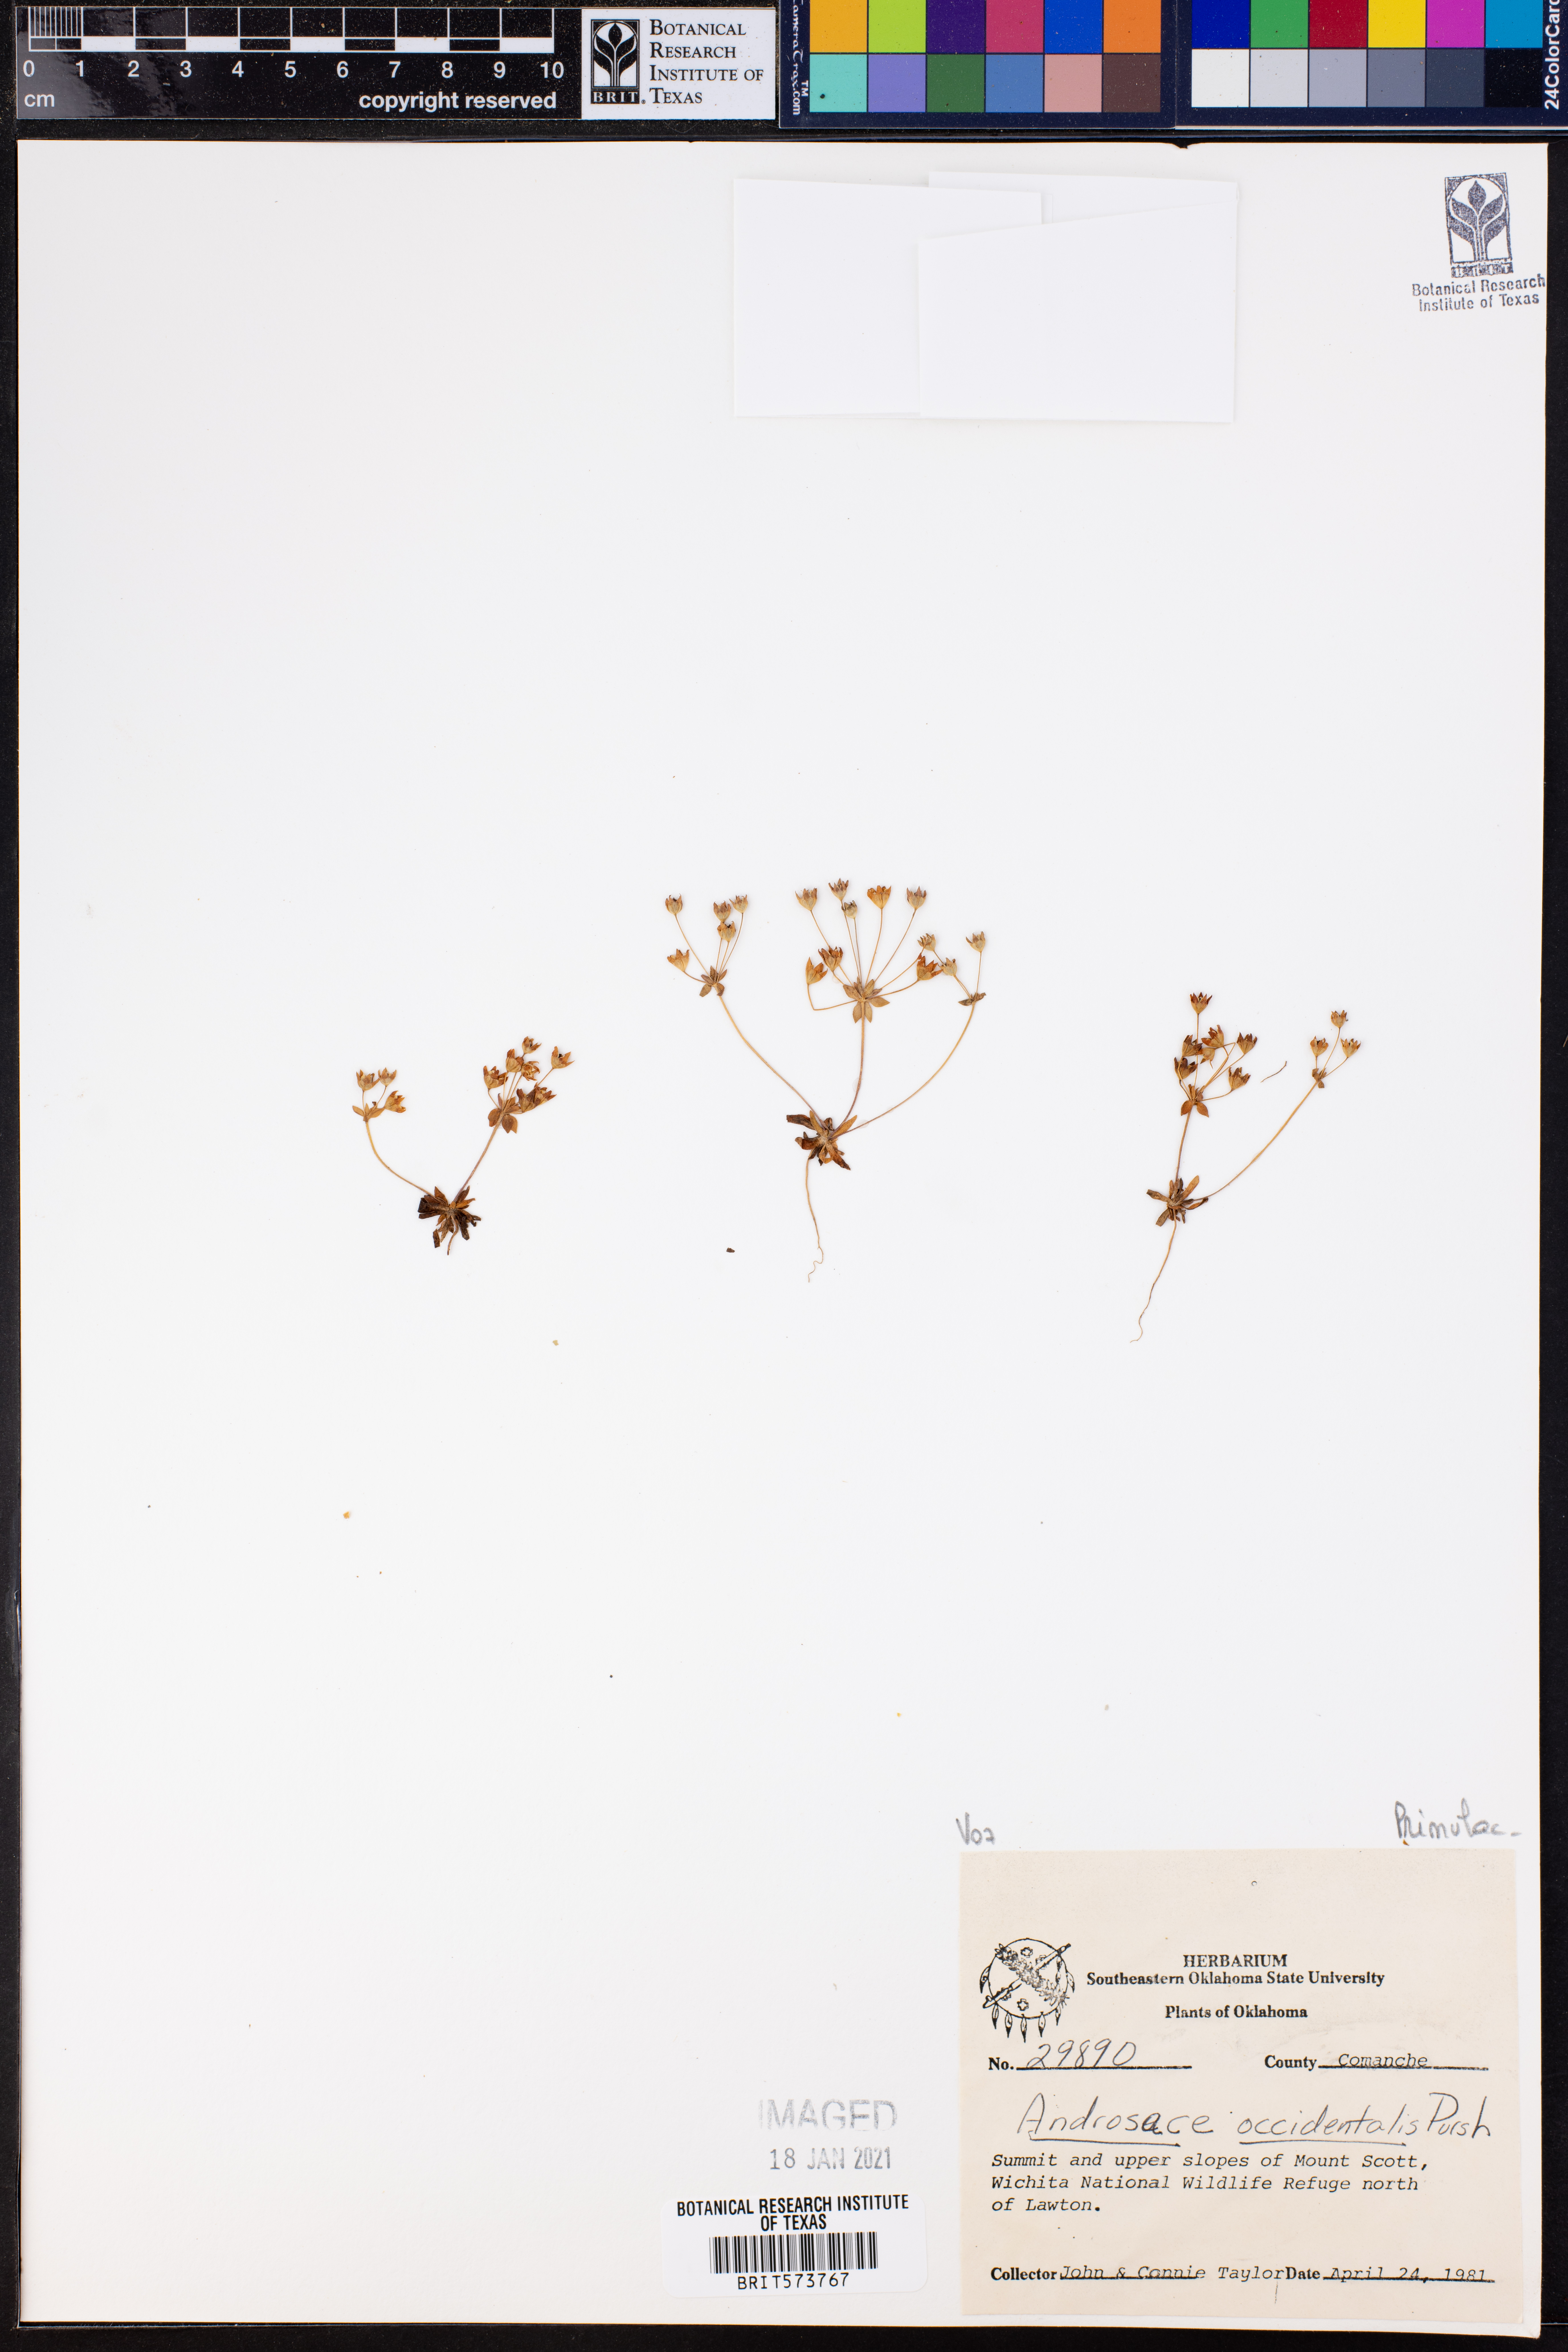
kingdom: Plantae
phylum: Tracheophyta
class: Magnoliopsida
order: Ericales
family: Primulaceae
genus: Androsace
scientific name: Androsace occidentalis
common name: West rock-jasmine
